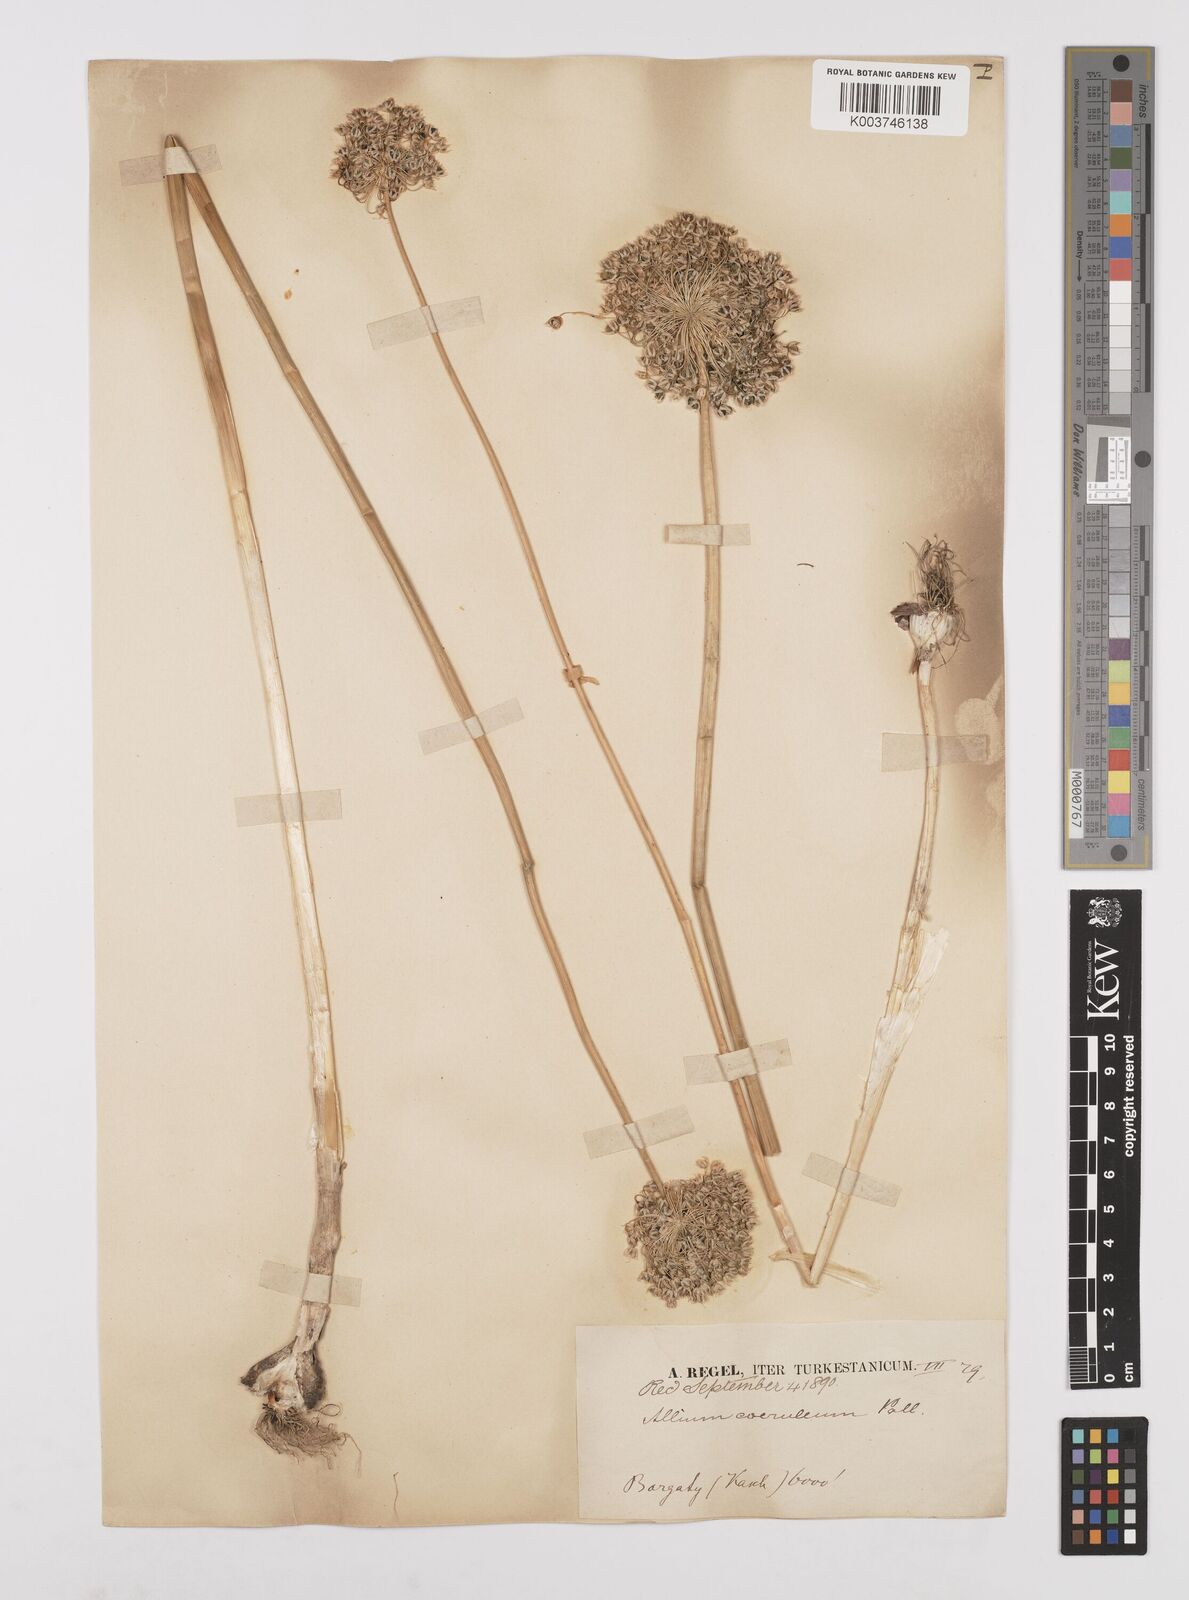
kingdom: Plantae
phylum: Tracheophyta
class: Liliopsida
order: Asparagales
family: Amaryllidaceae
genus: Allium
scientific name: Allium caeruleum
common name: Blue-of-the-heavens
